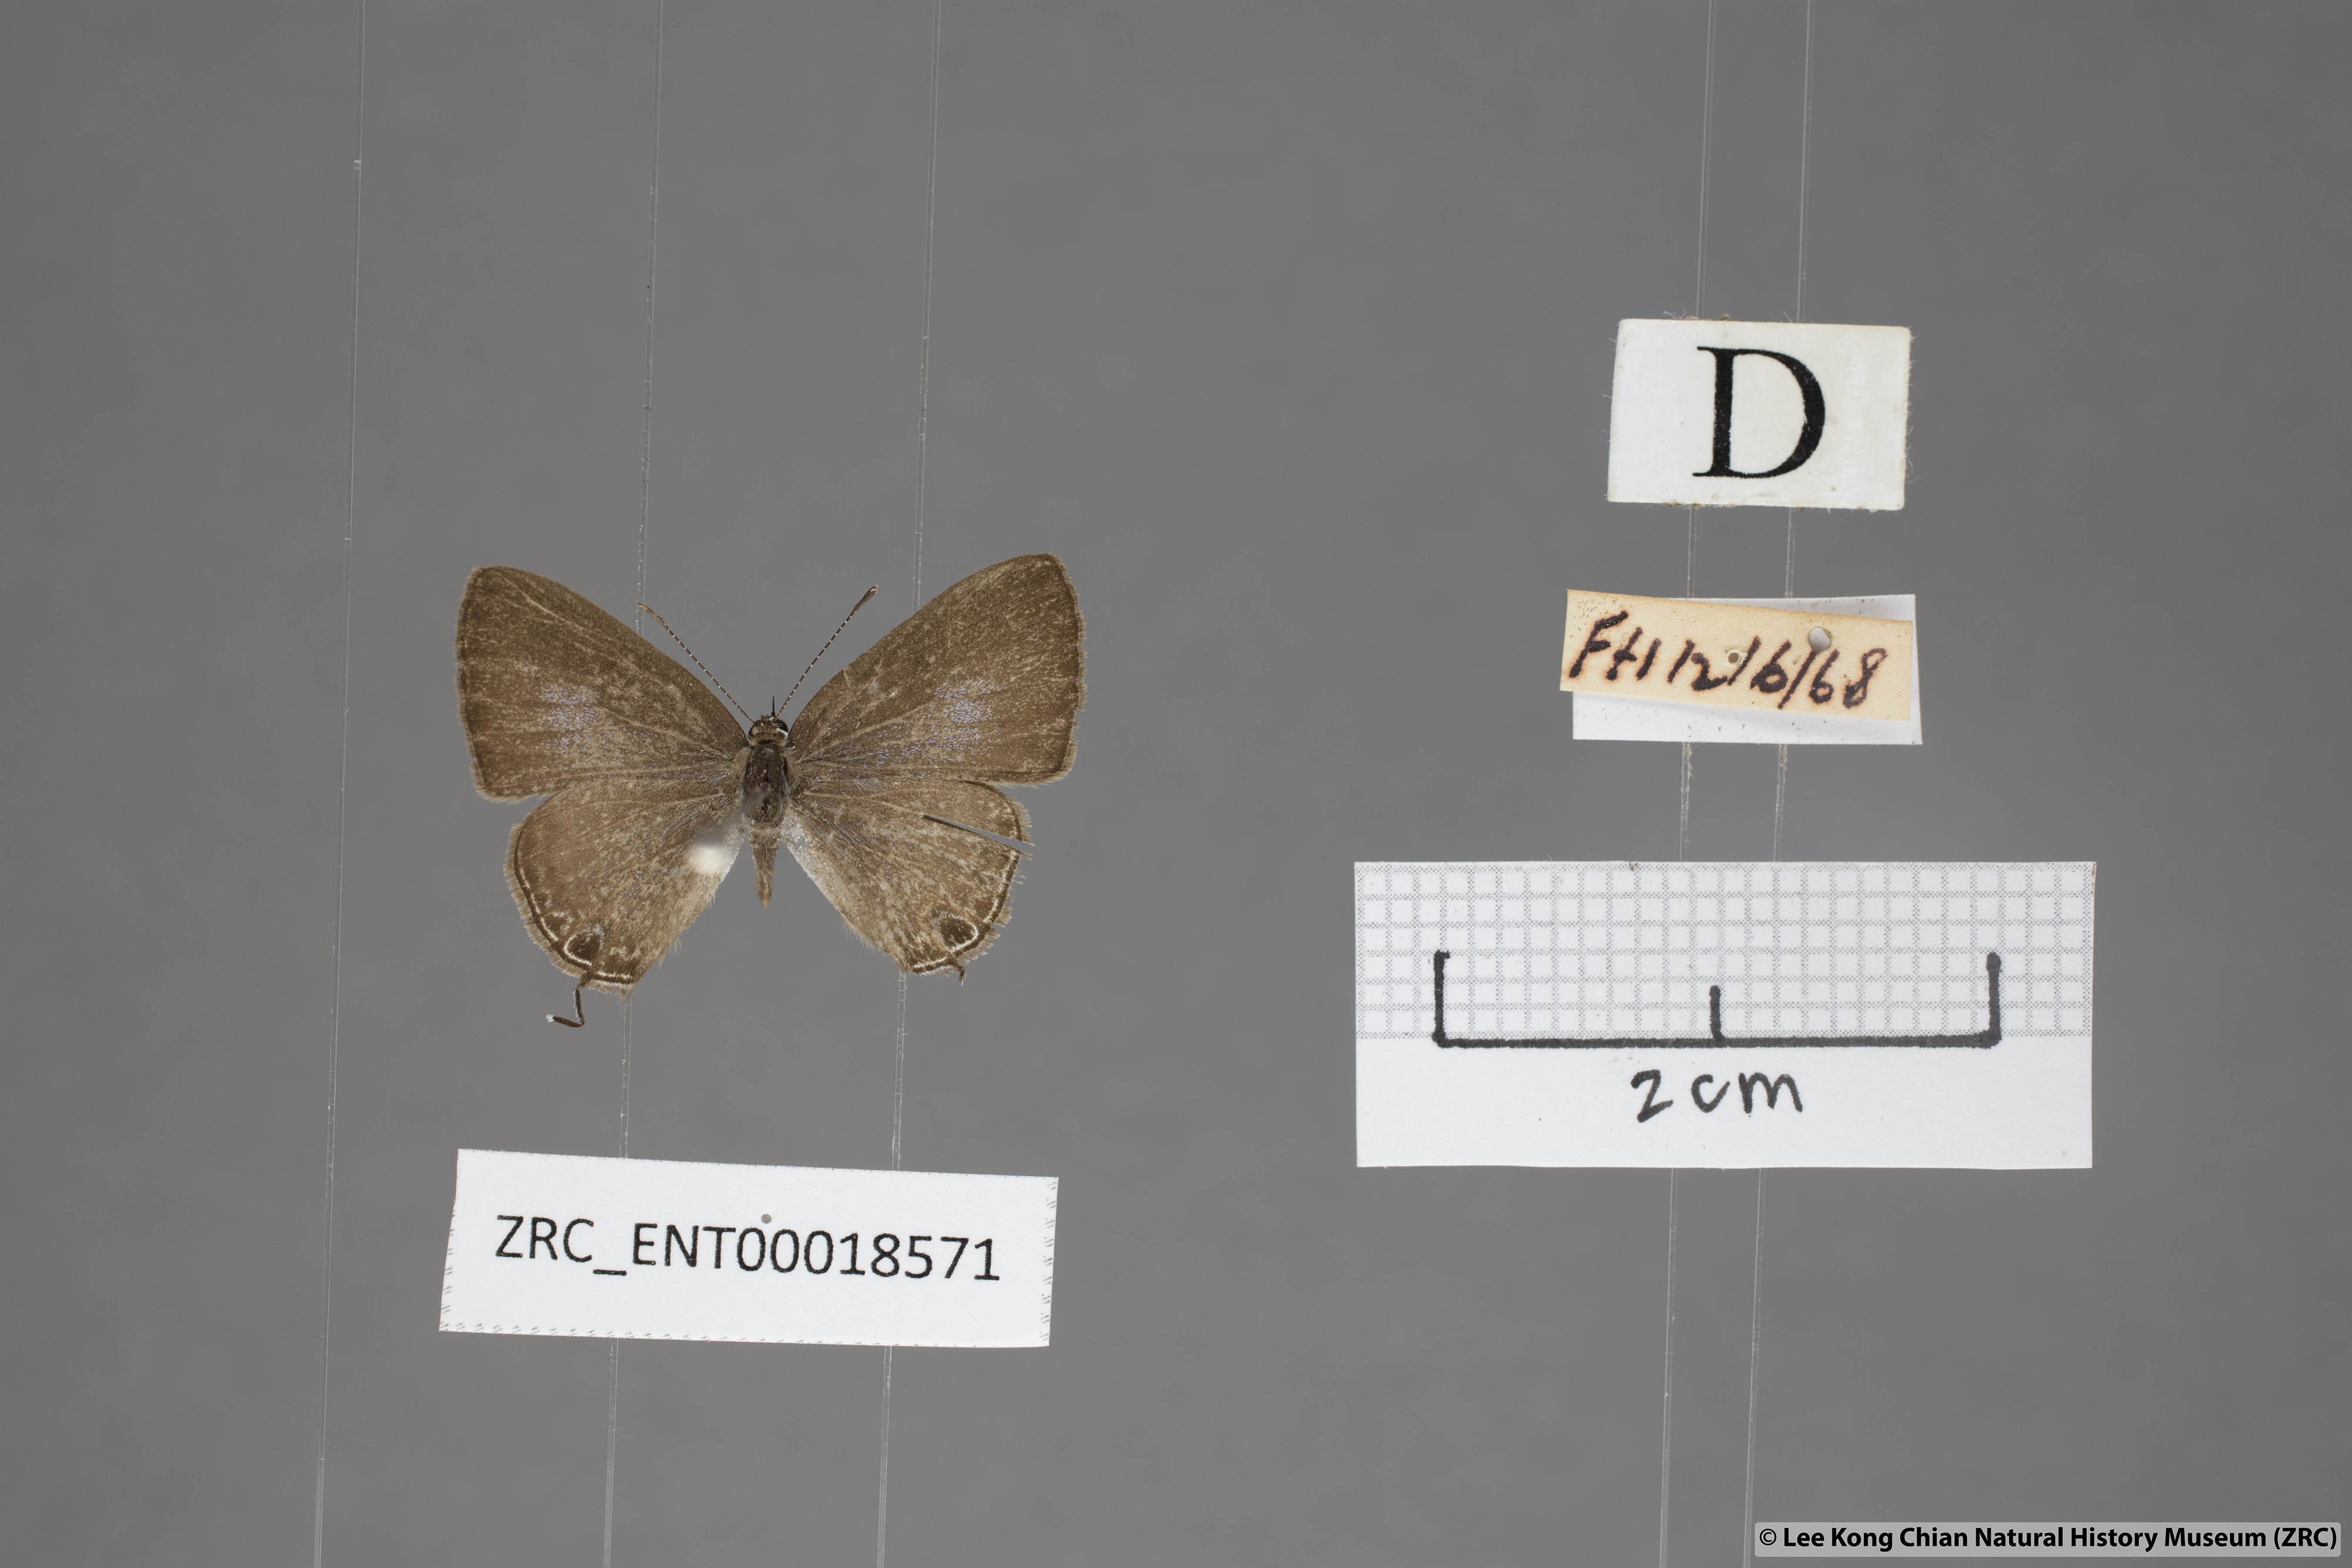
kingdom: Animalia
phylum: Arthropoda
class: Insecta
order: Lepidoptera
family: Lycaenidae
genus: Prosotas
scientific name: Prosotas dubiosa
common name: Tailless lineblue
